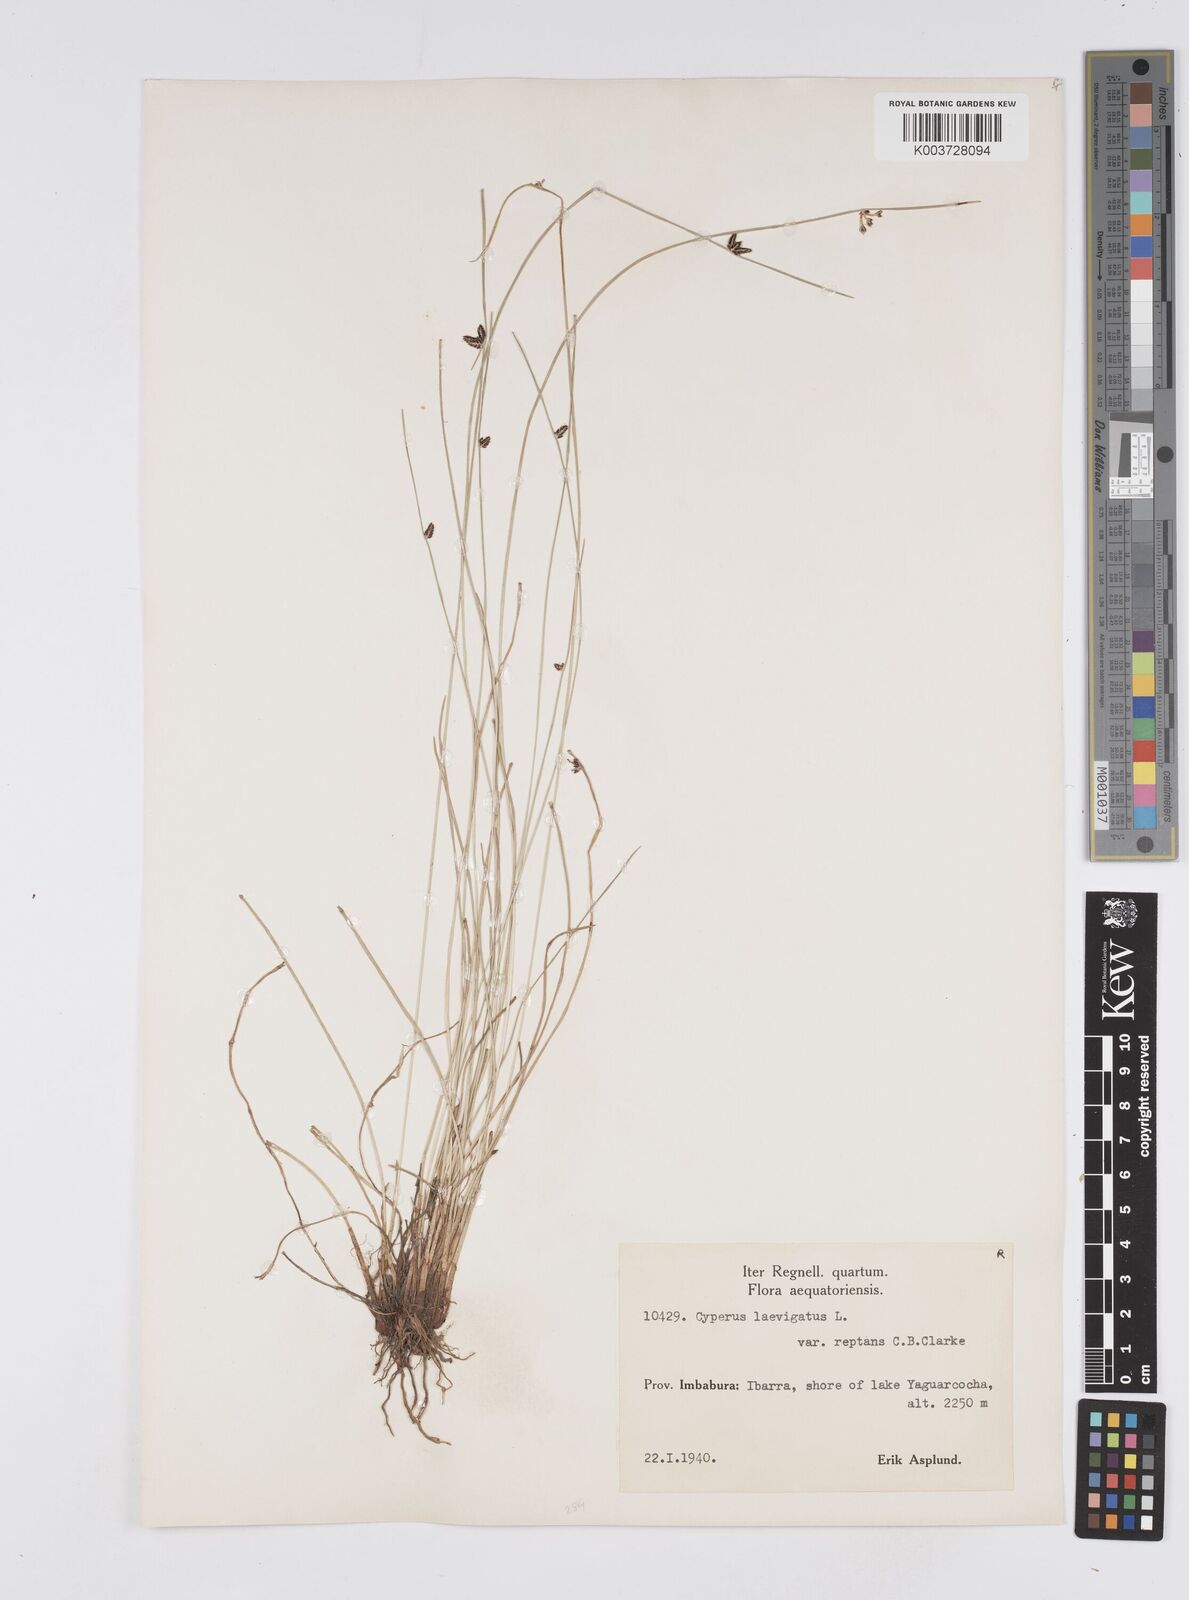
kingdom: Plantae
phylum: Tracheophyta
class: Liliopsida
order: Poales
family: Cyperaceae
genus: Cyperus
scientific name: Cyperus laevigatus
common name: Smooth flat sedge
